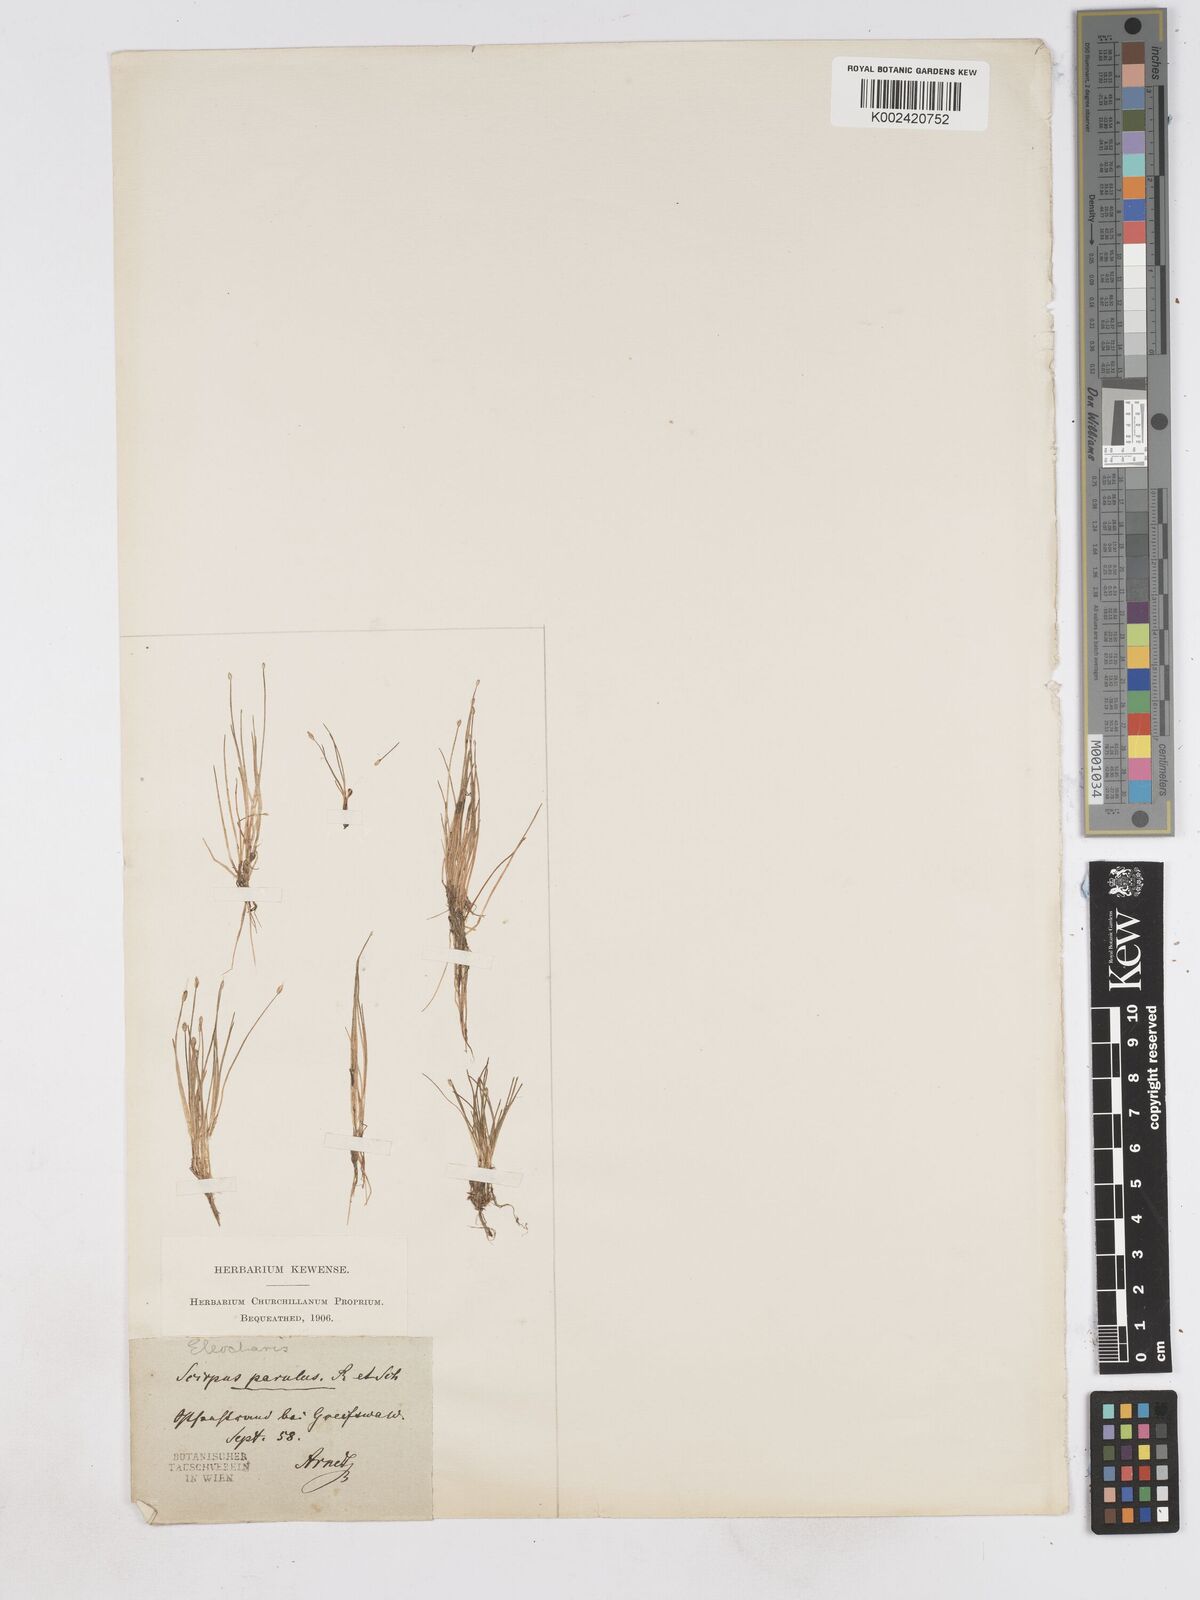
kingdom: Plantae
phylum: Tracheophyta
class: Liliopsida
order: Poales
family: Cyperaceae
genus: Eleocharis
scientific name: Eleocharis parvula
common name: Dwarf spike-rush
